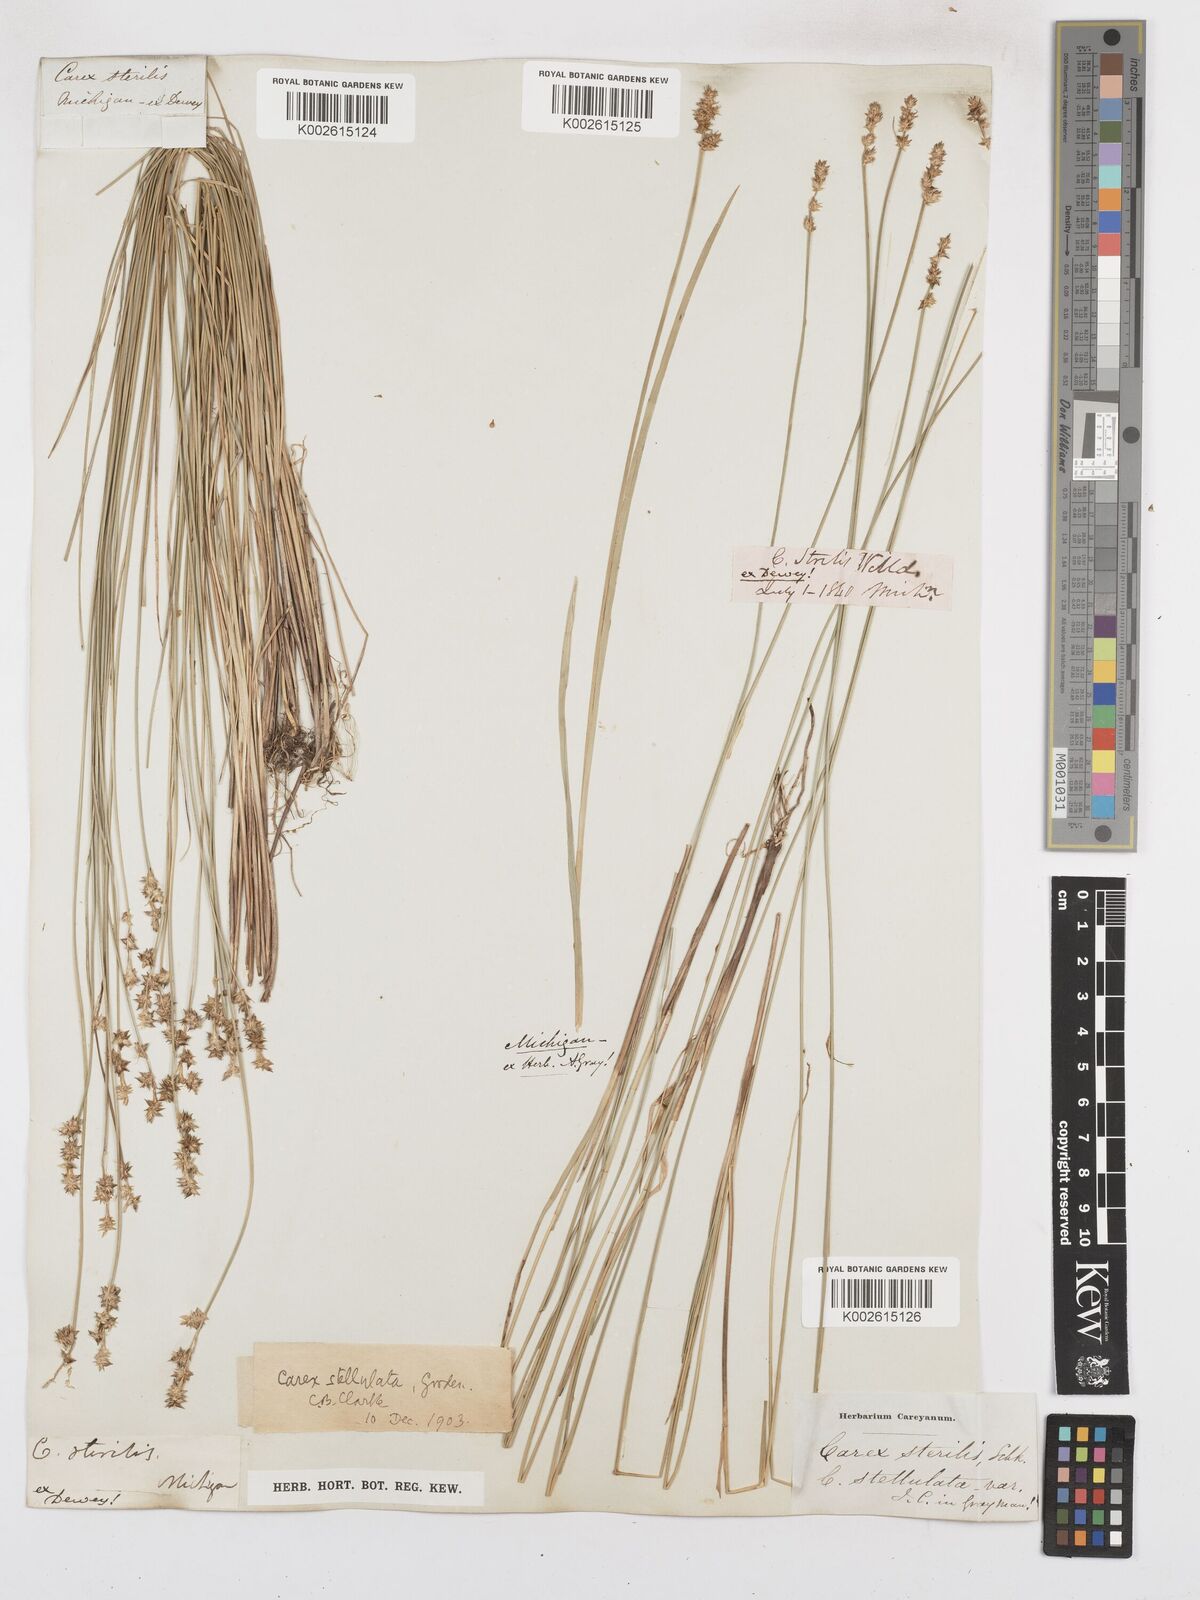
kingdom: Plantae
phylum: Tracheophyta
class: Liliopsida
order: Poales
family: Cyperaceae
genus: Carex
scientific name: Carex echinata
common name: Star sedge
